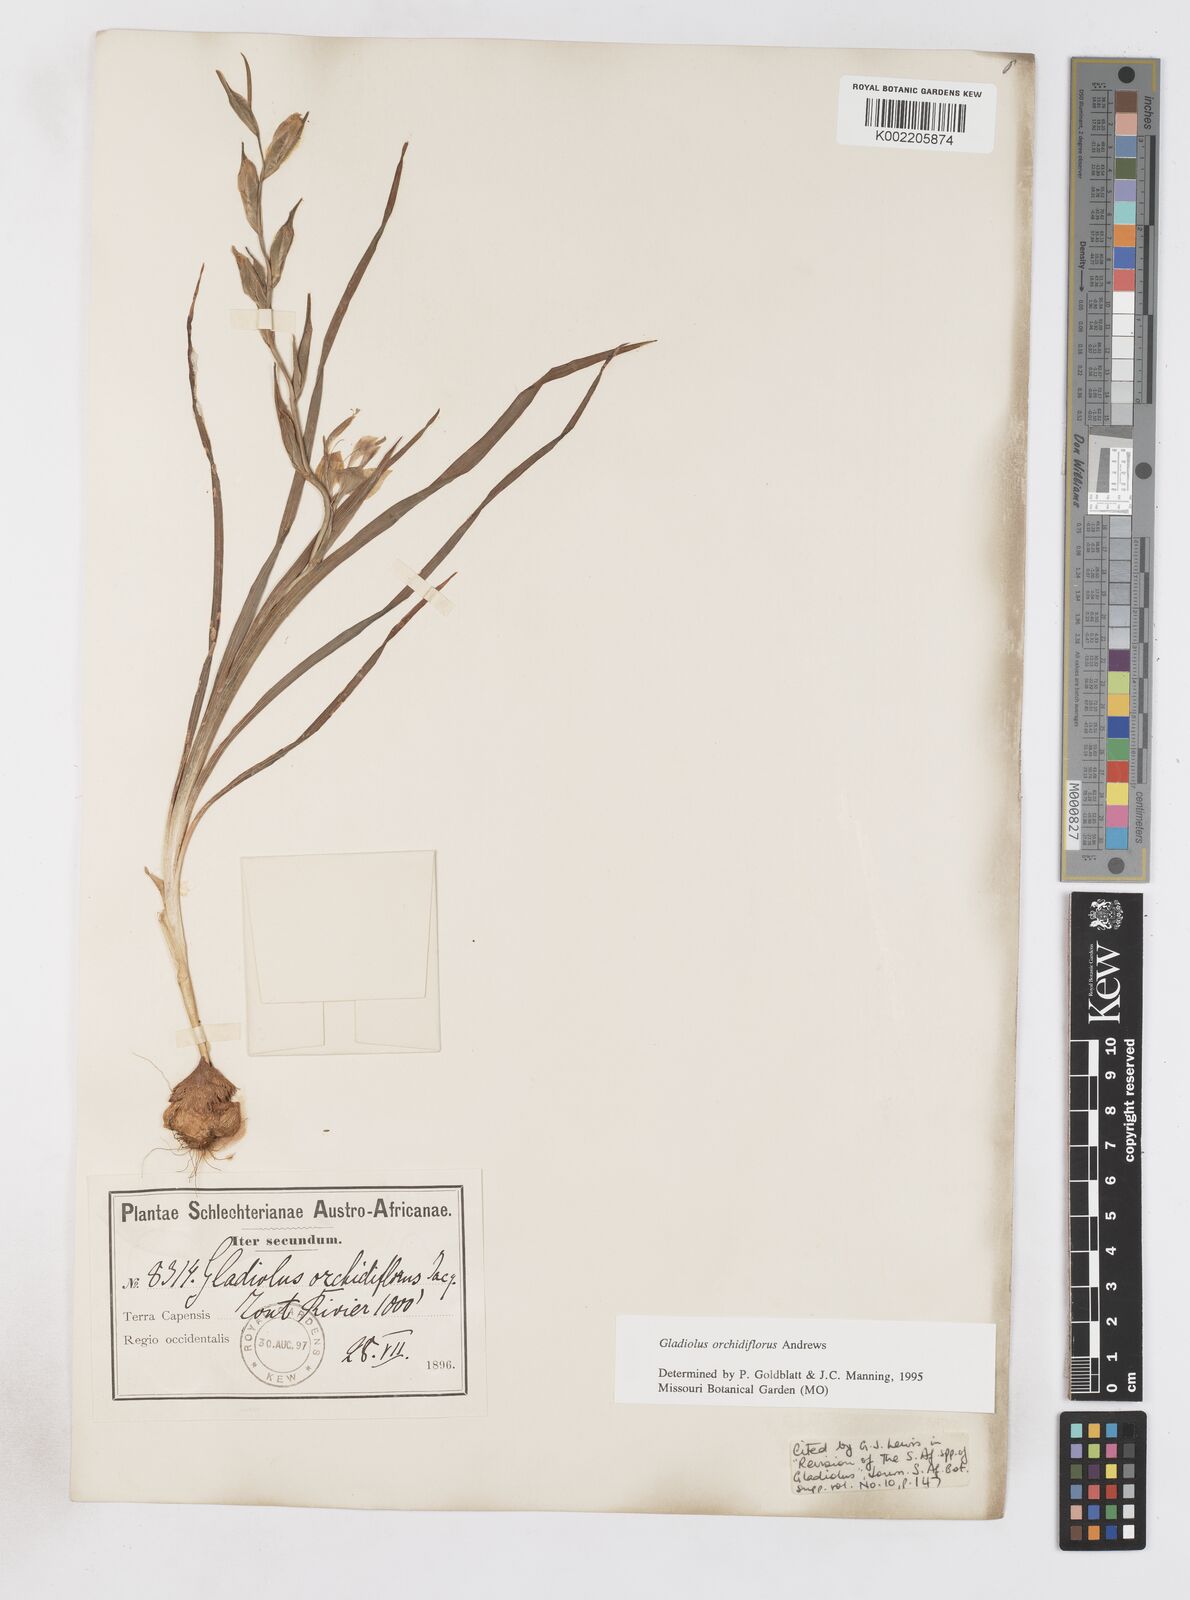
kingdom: Plantae
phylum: Tracheophyta
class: Liliopsida
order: Asparagales
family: Iridaceae
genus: Gladiolus
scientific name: Gladiolus orchidiflorus
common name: Gray kalkoentjie
